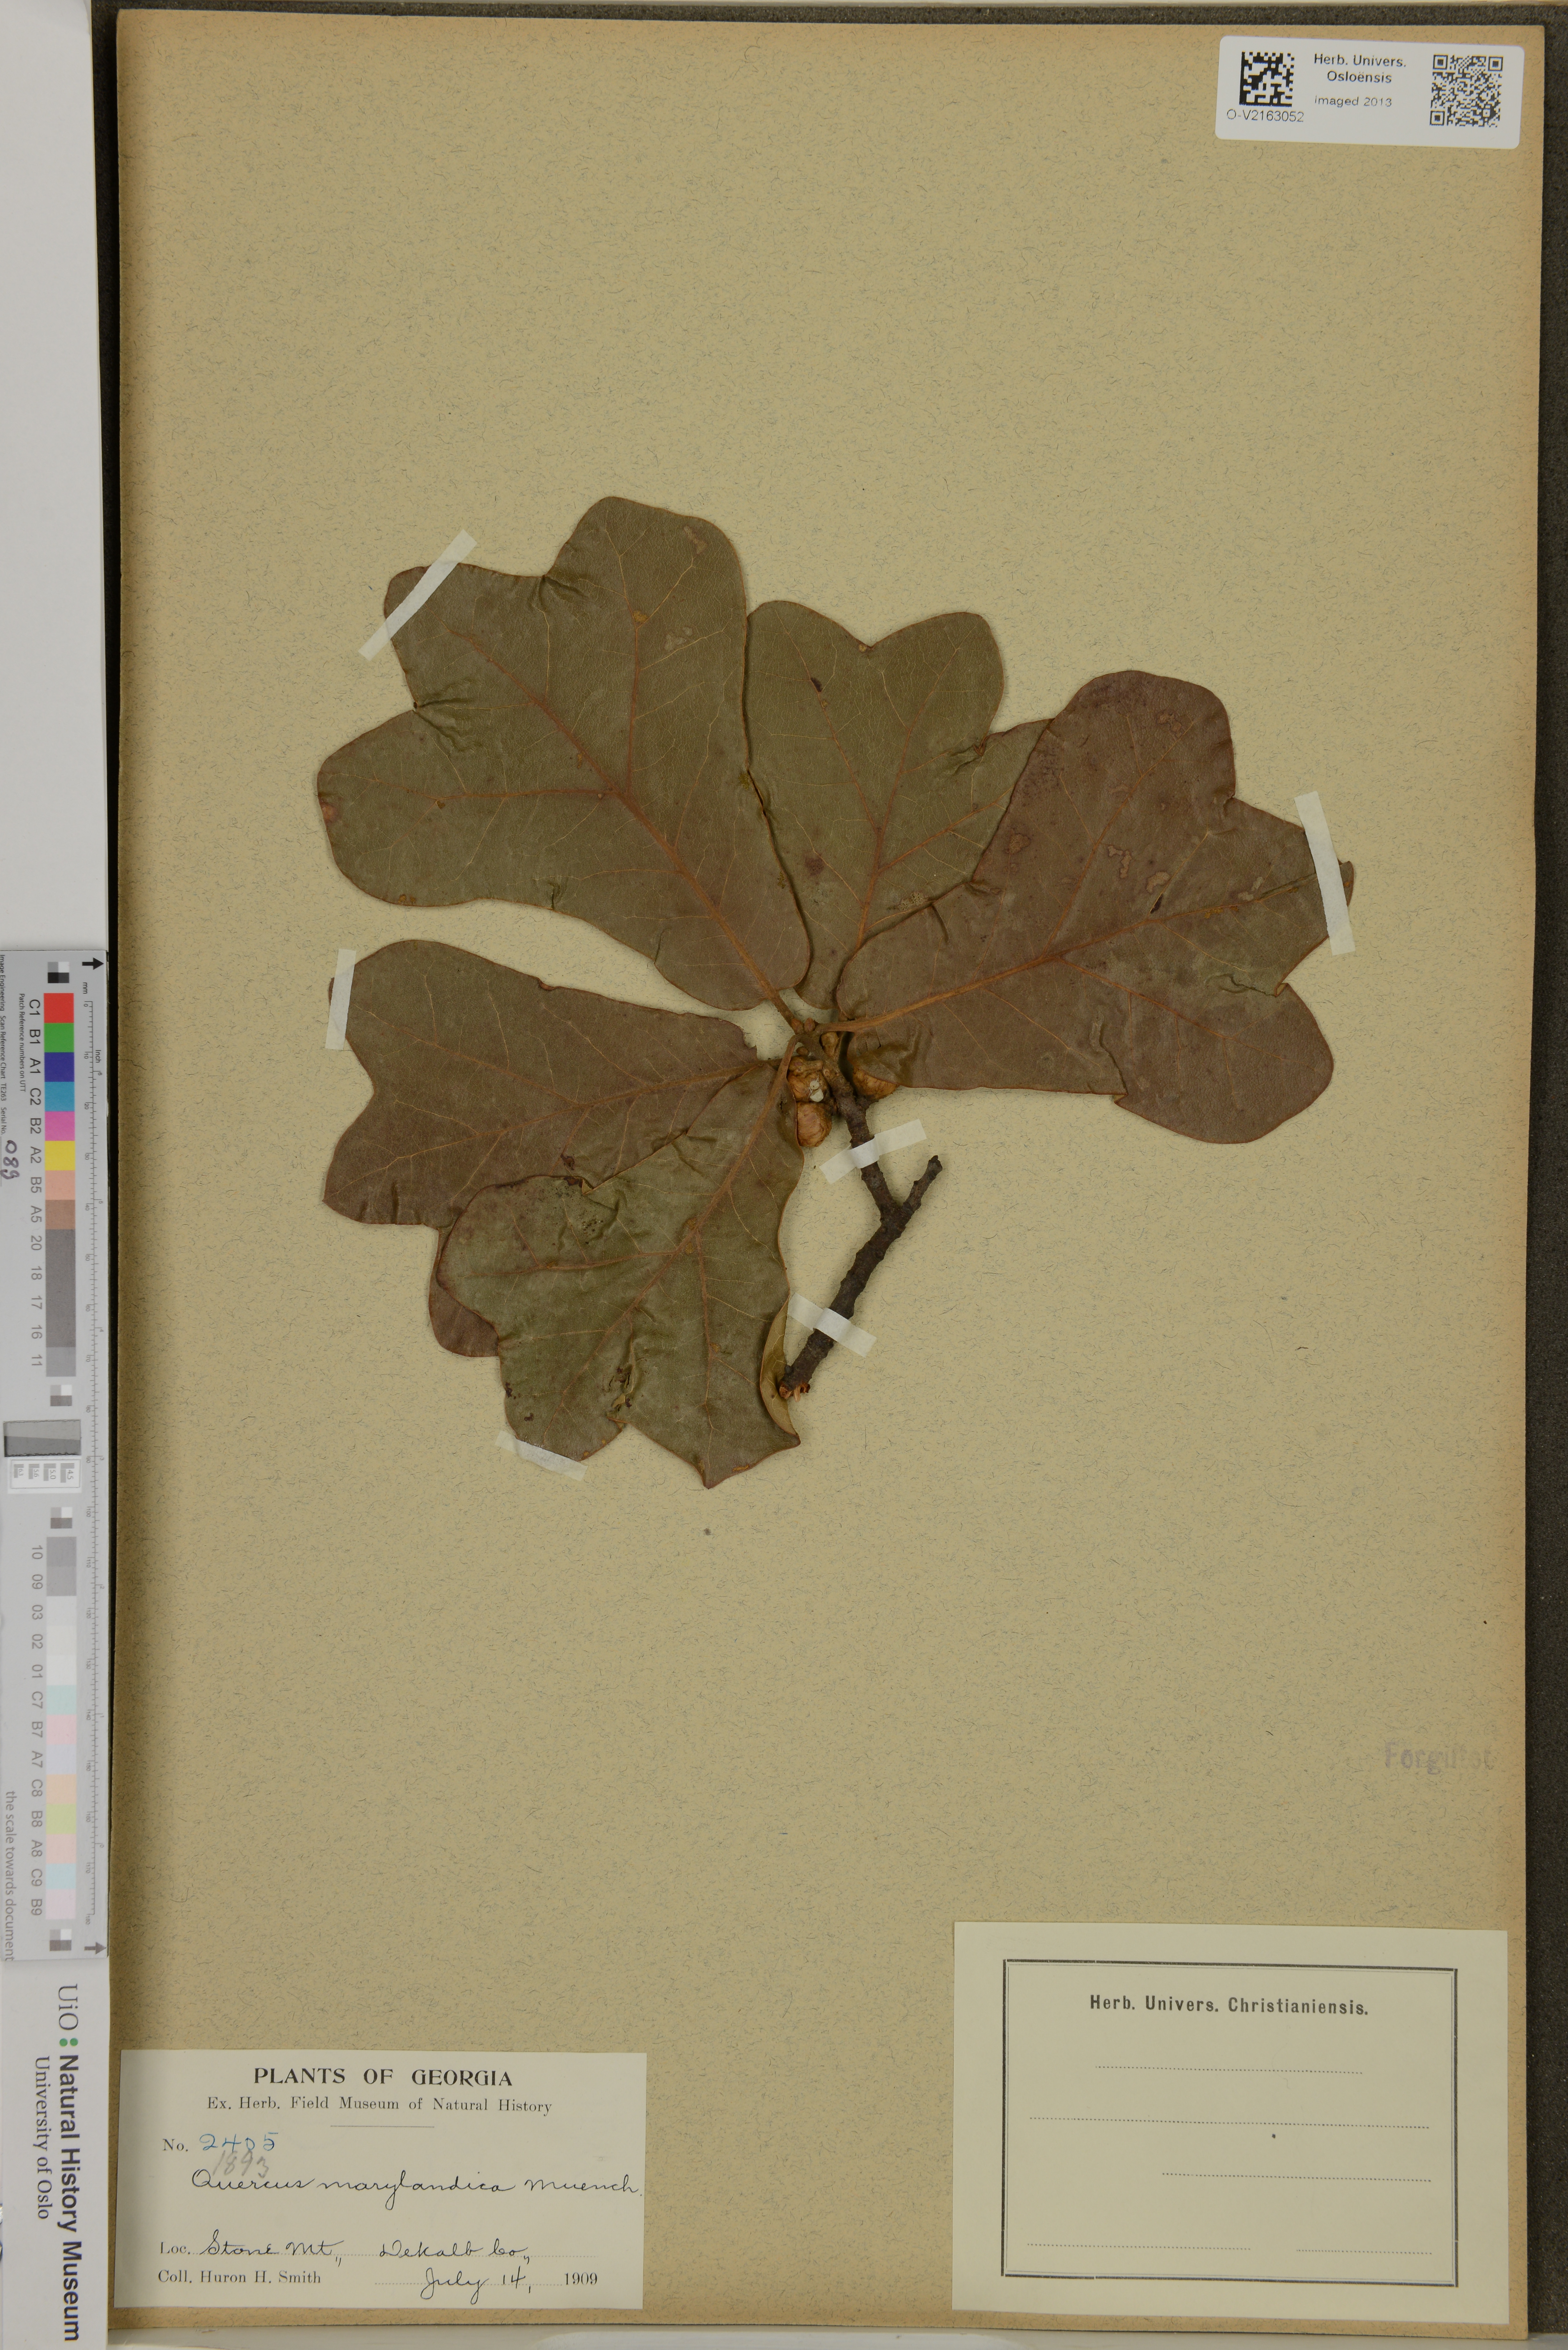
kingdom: Plantae
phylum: Tracheophyta
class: Magnoliopsida
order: Fagales
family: Fagaceae
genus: Quercus
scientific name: Quercus nigra
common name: Water oak
